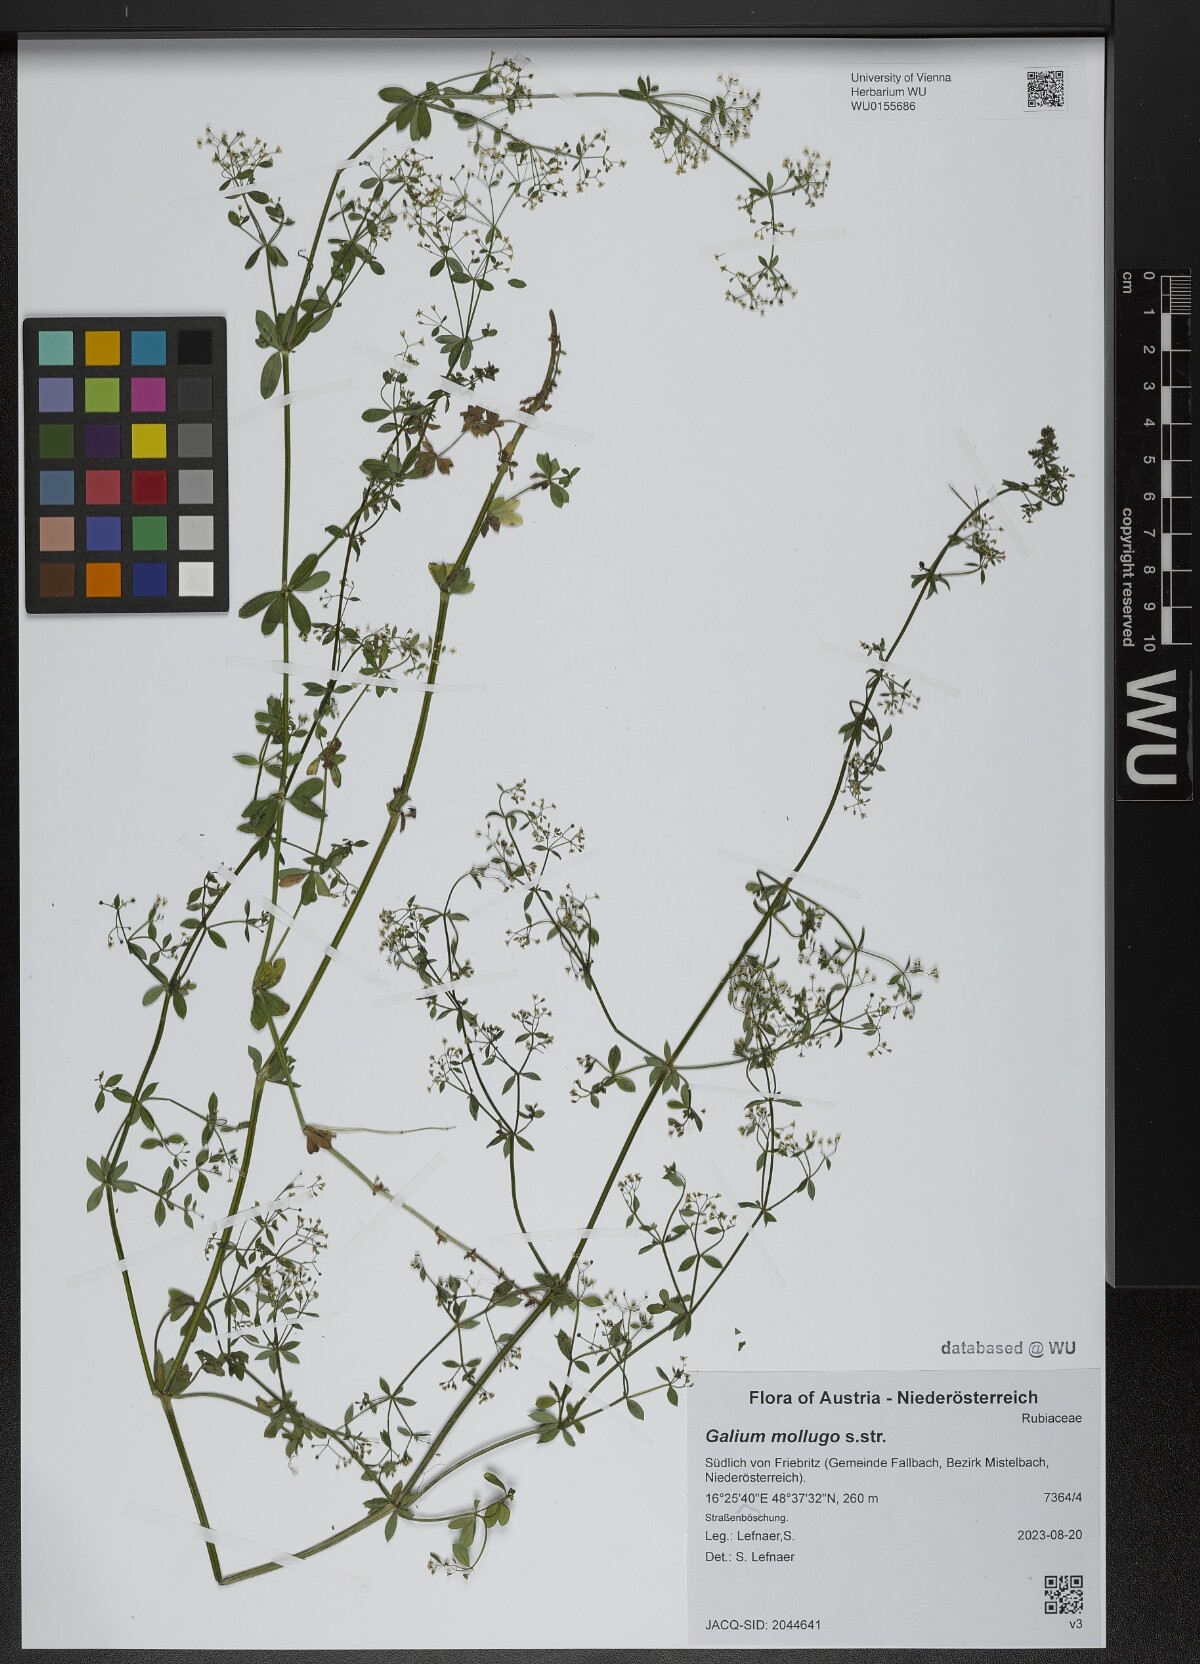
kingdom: Plantae
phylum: Tracheophyta
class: Magnoliopsida
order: Gentianales
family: Rubiaceae
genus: Galium
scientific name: Galium mollugo
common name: Hedge bedstraw
